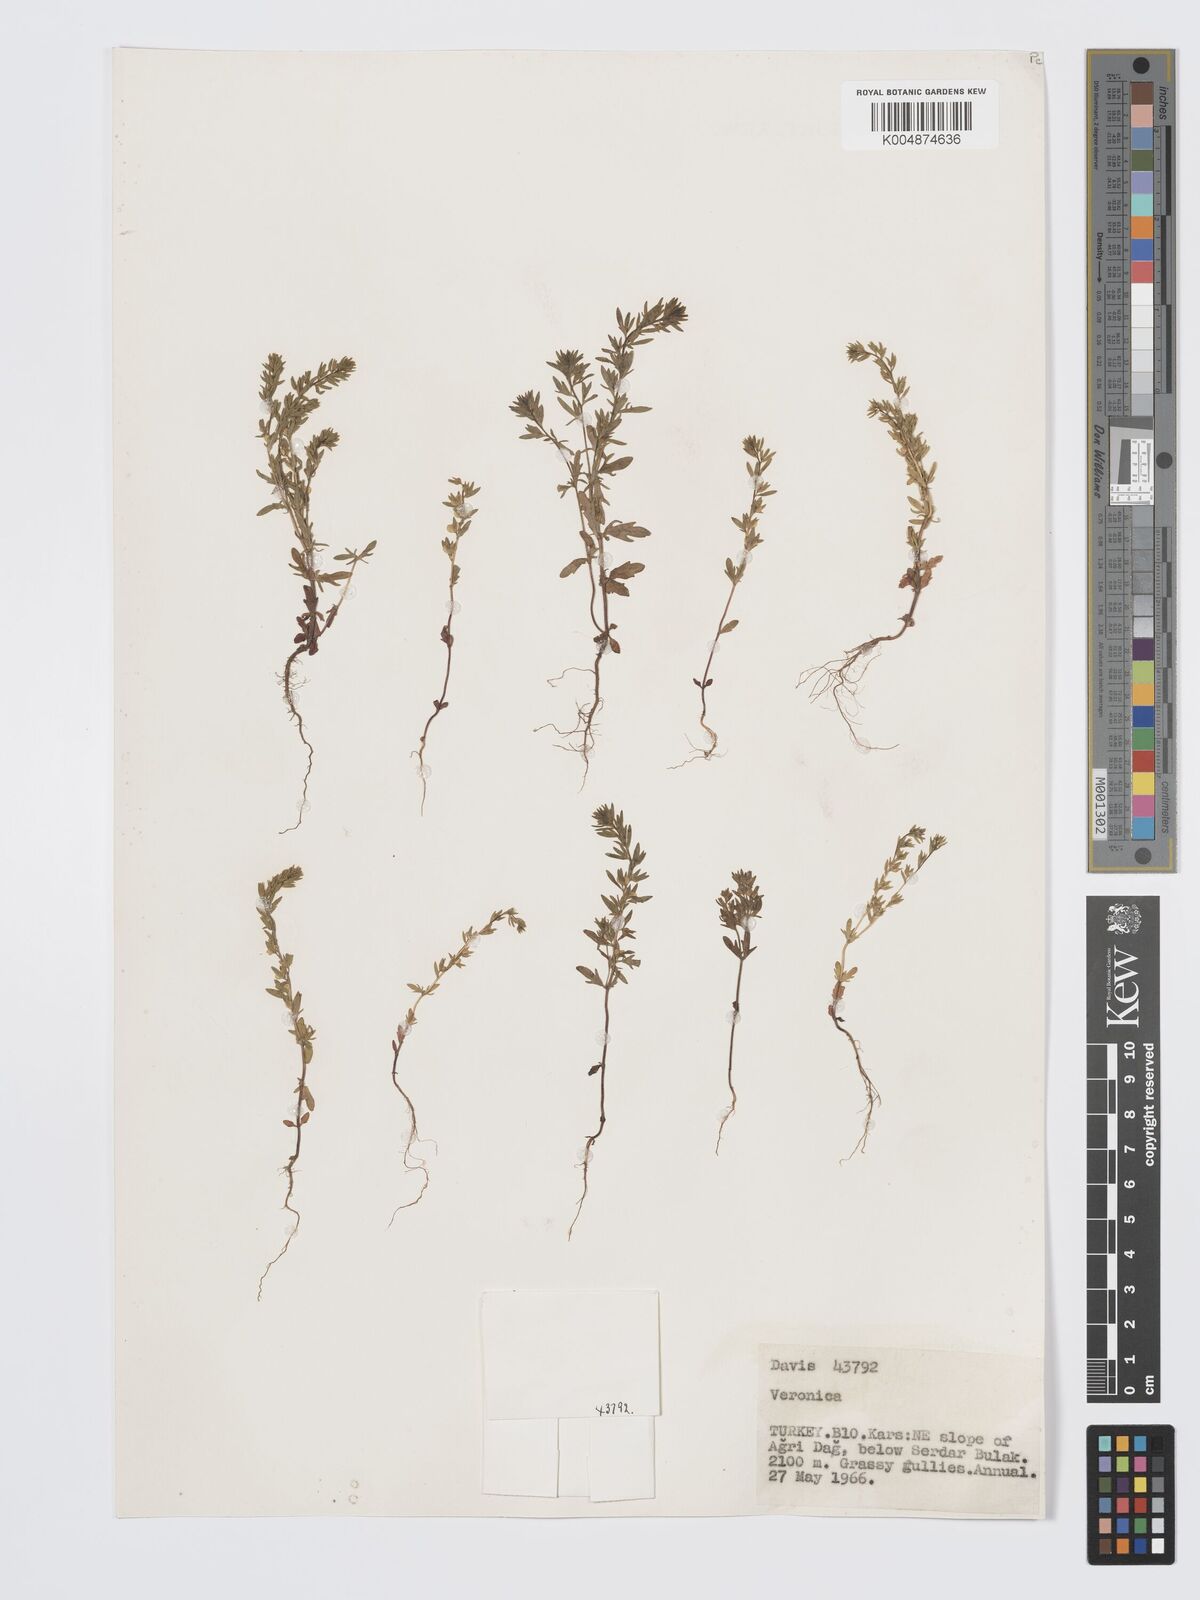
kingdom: Plantae
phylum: Tracheophyta
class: Magnoliopsida
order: Lamiales
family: Plantaginaceae
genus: Veronica
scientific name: Veronica
